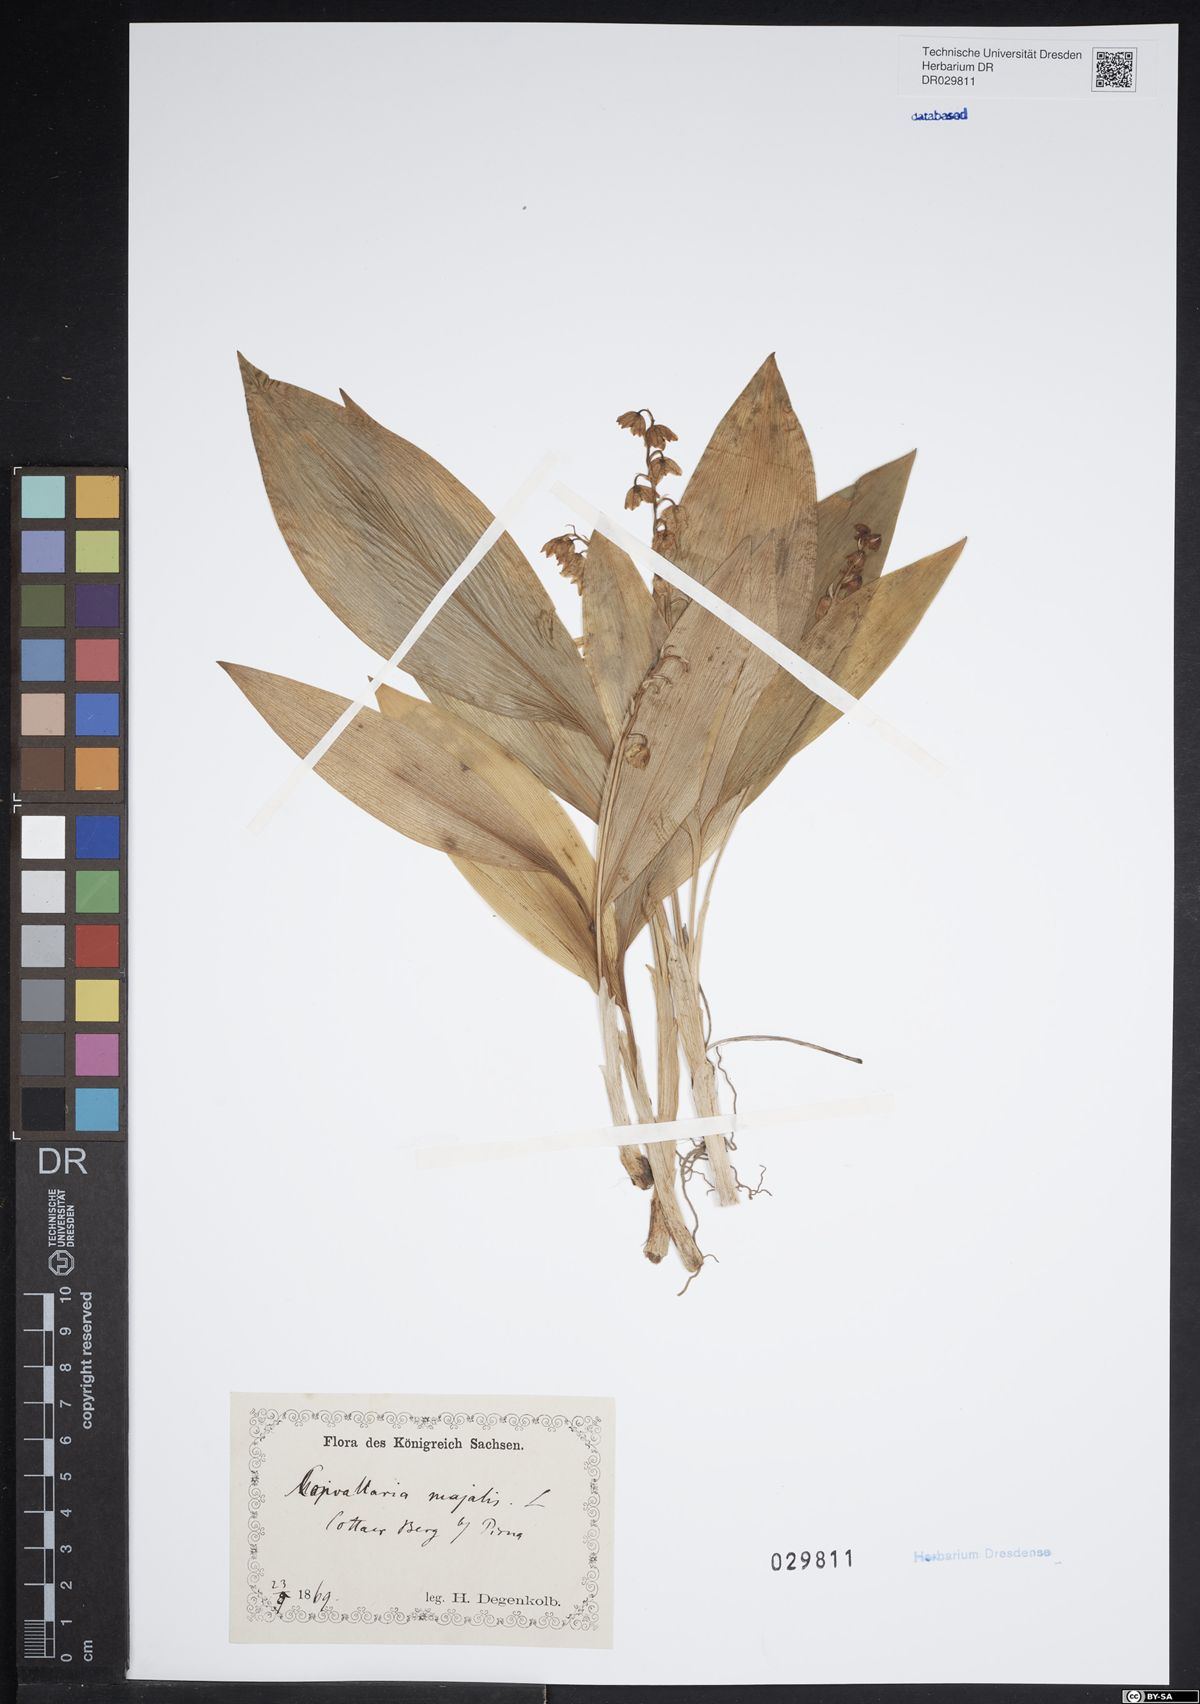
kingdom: Plantae
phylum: Tracheophyta
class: Liliopsida
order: Asparagales
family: Asparagaceae
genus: Convallaria
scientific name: Convallaria majalis
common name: Lily-of-the-valley
